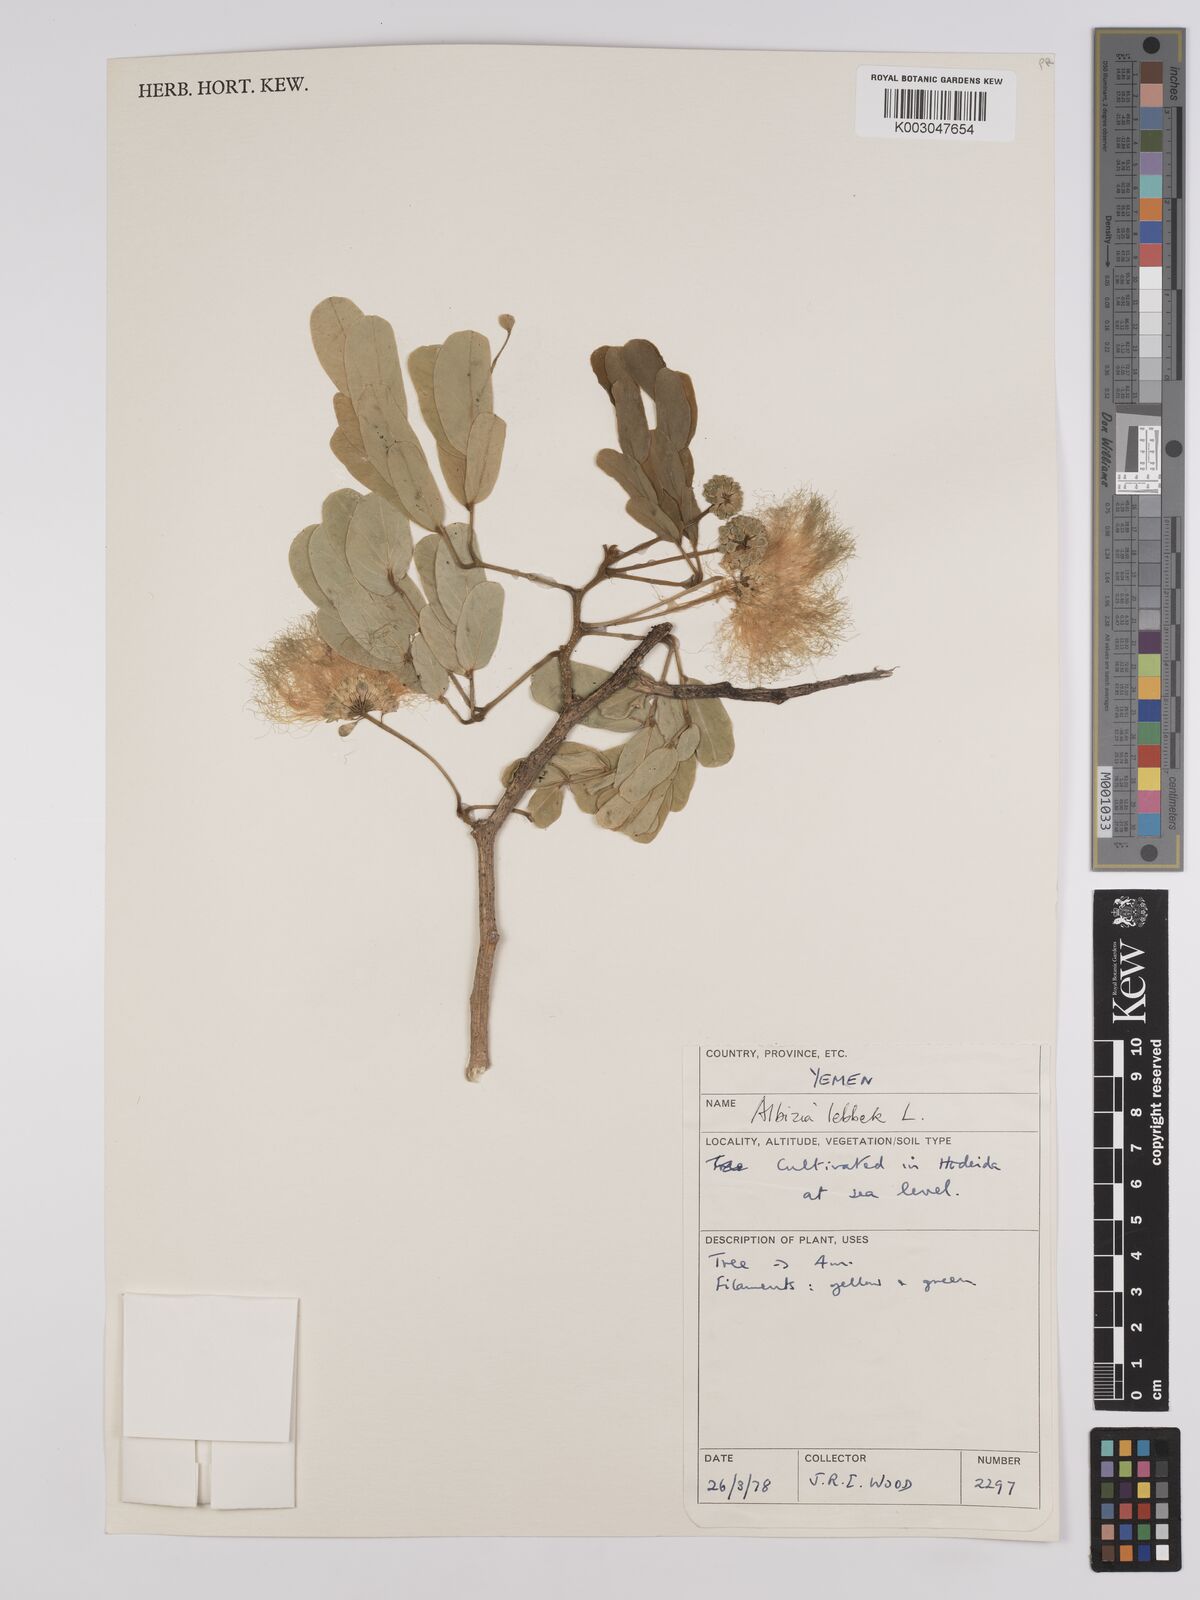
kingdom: Plantae
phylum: Tracheophyta
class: Magnoliopsida
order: Fabales
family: Fabaceae
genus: Albizia
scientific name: Albizia lebbeck
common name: Woman's tongue
